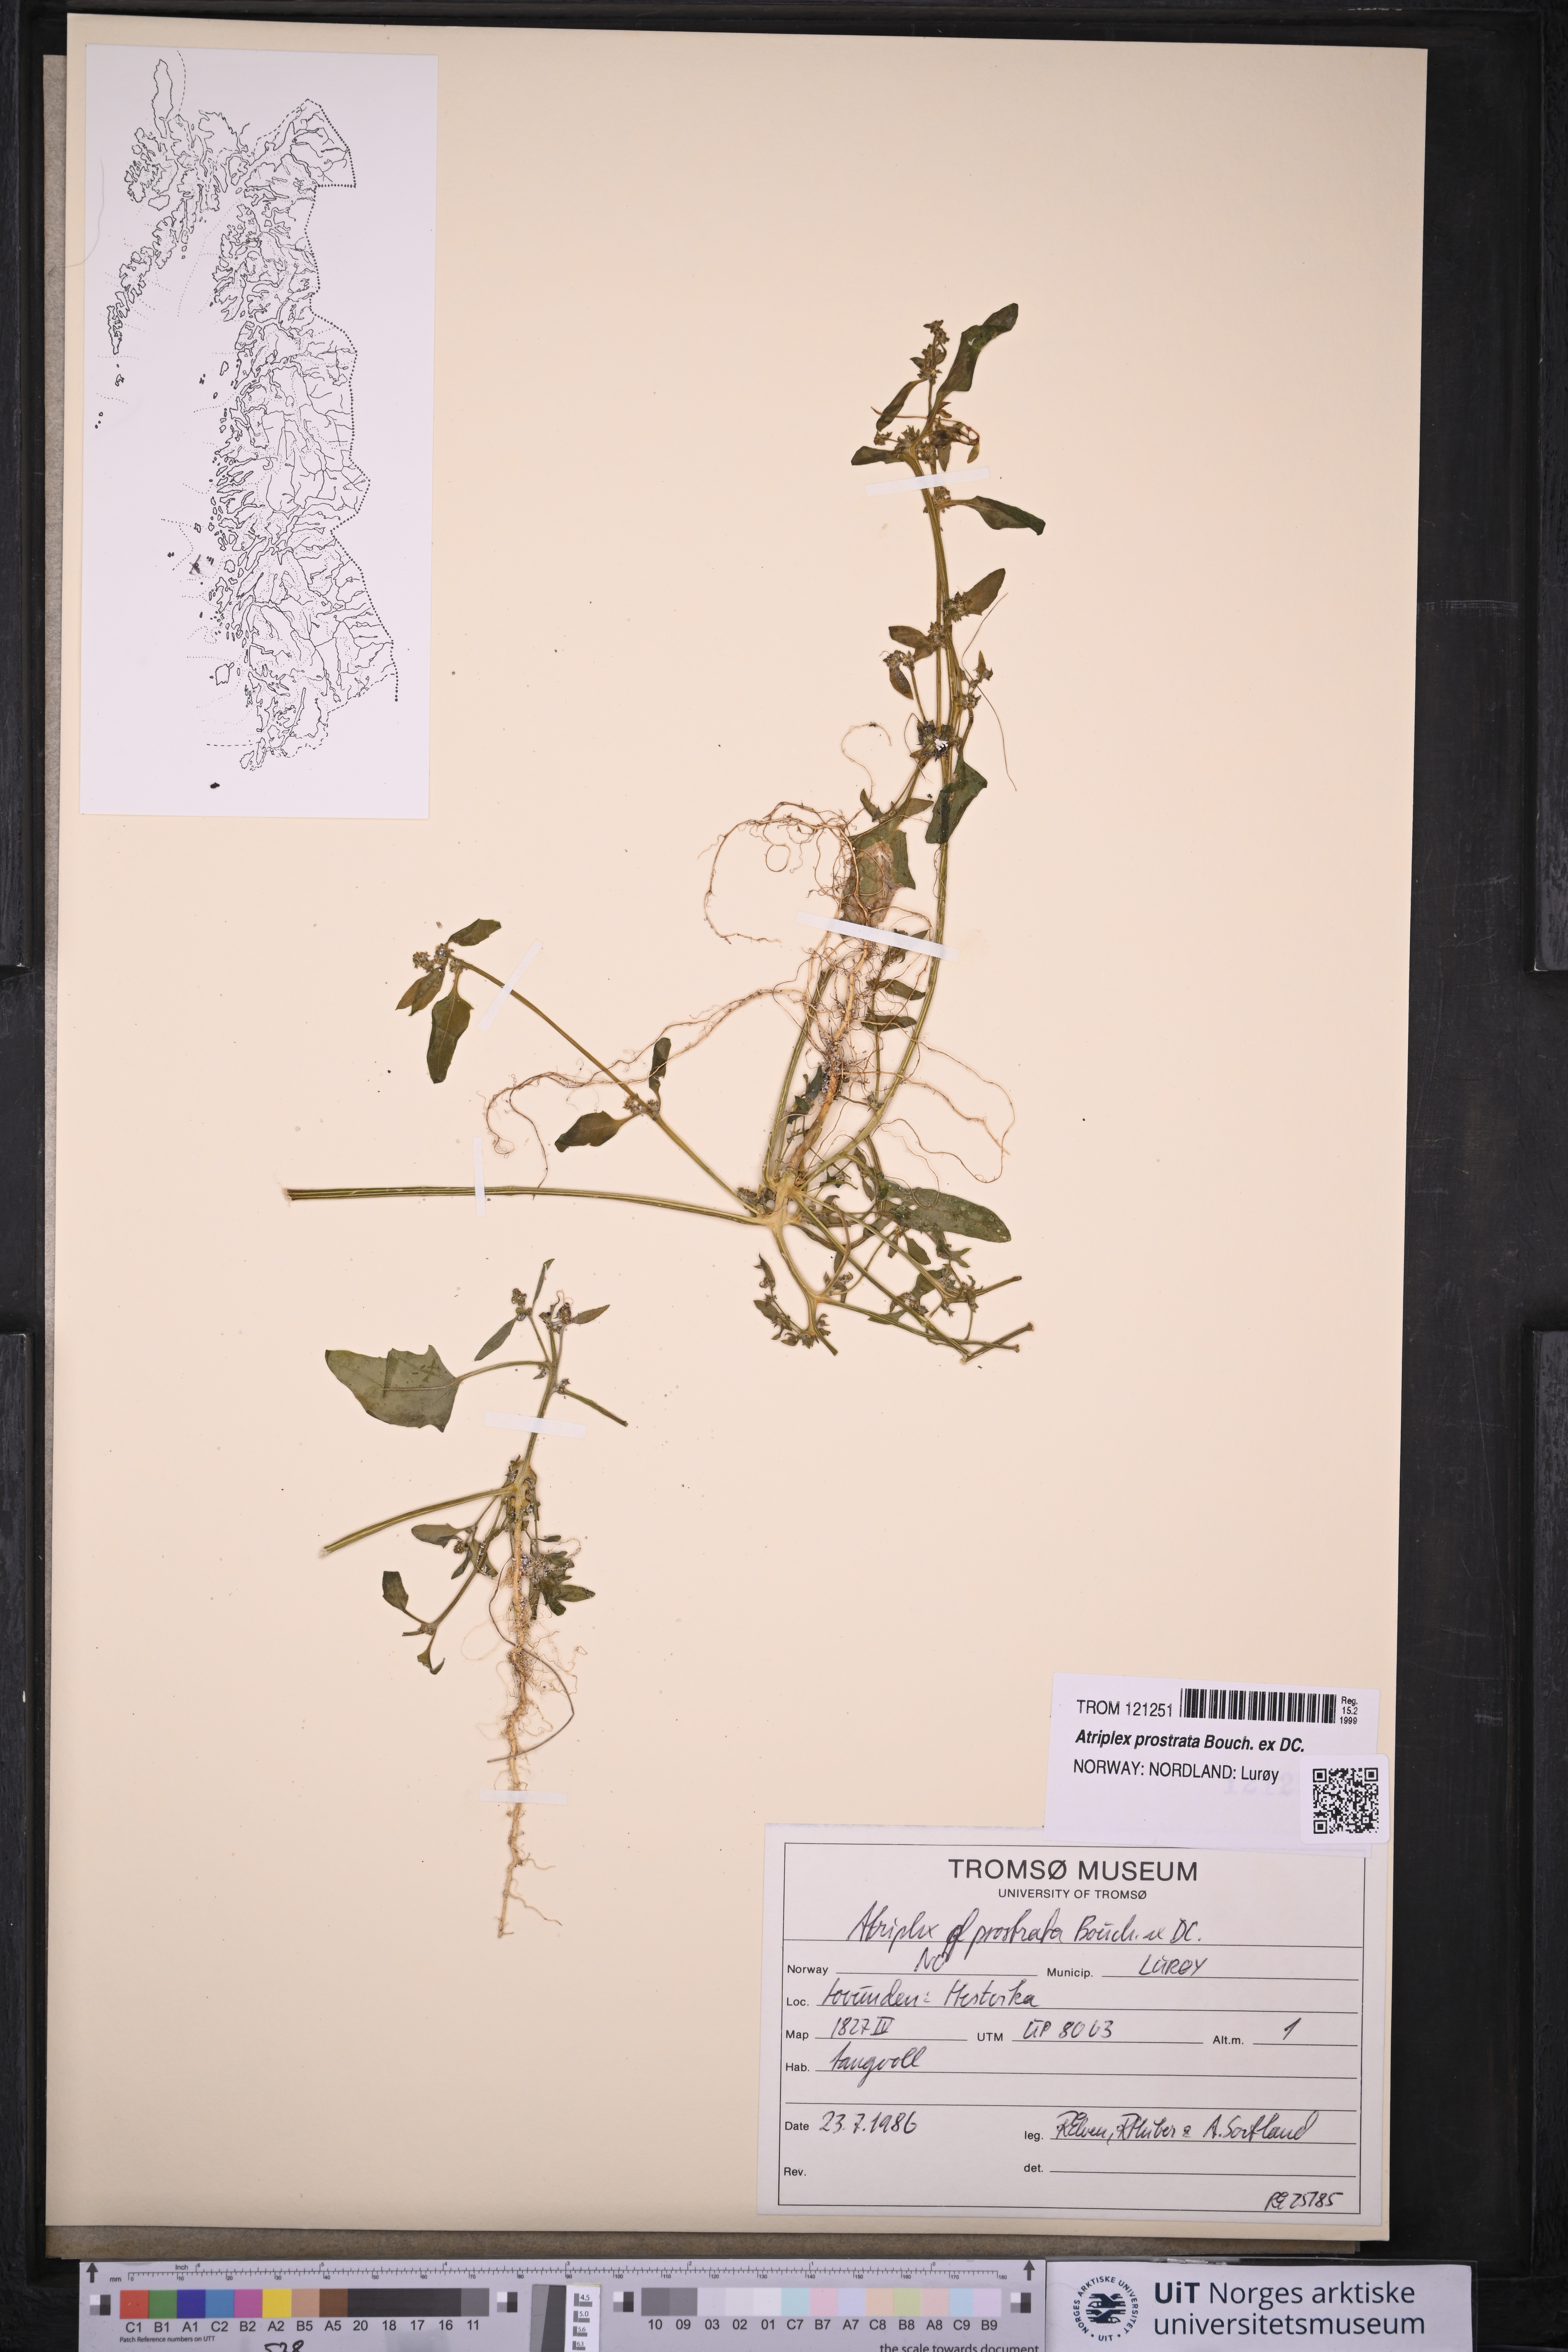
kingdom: Plantae
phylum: Tracheophyta
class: Magnoliopsida
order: Caryophyllales
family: Amaranthaceae
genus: Atriplex
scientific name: Atriplex prostrata
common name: Spear-leaved orache
